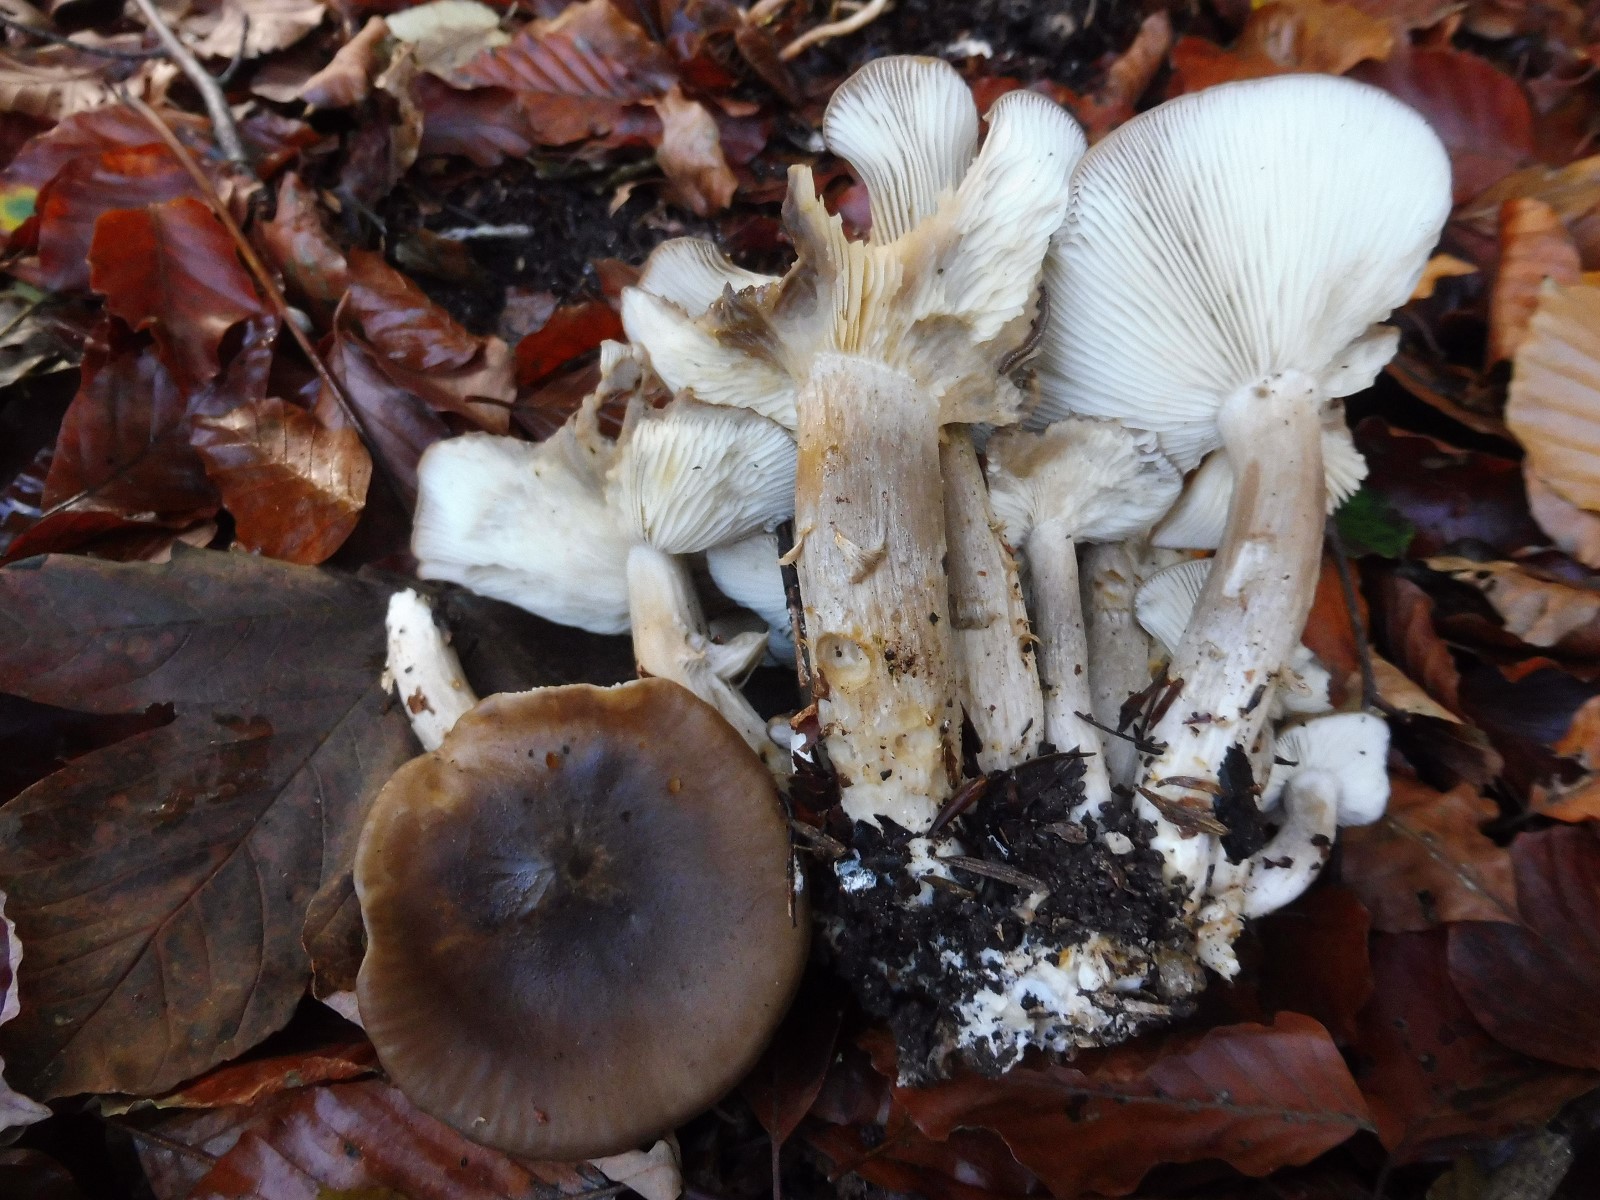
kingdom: Fungi
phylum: Basidiomycota
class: Agaricomycetes
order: Agaricales
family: Lyophyllaceae
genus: Lyophyllum
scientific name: Lyophyllum decastes
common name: røggrå gråblad
